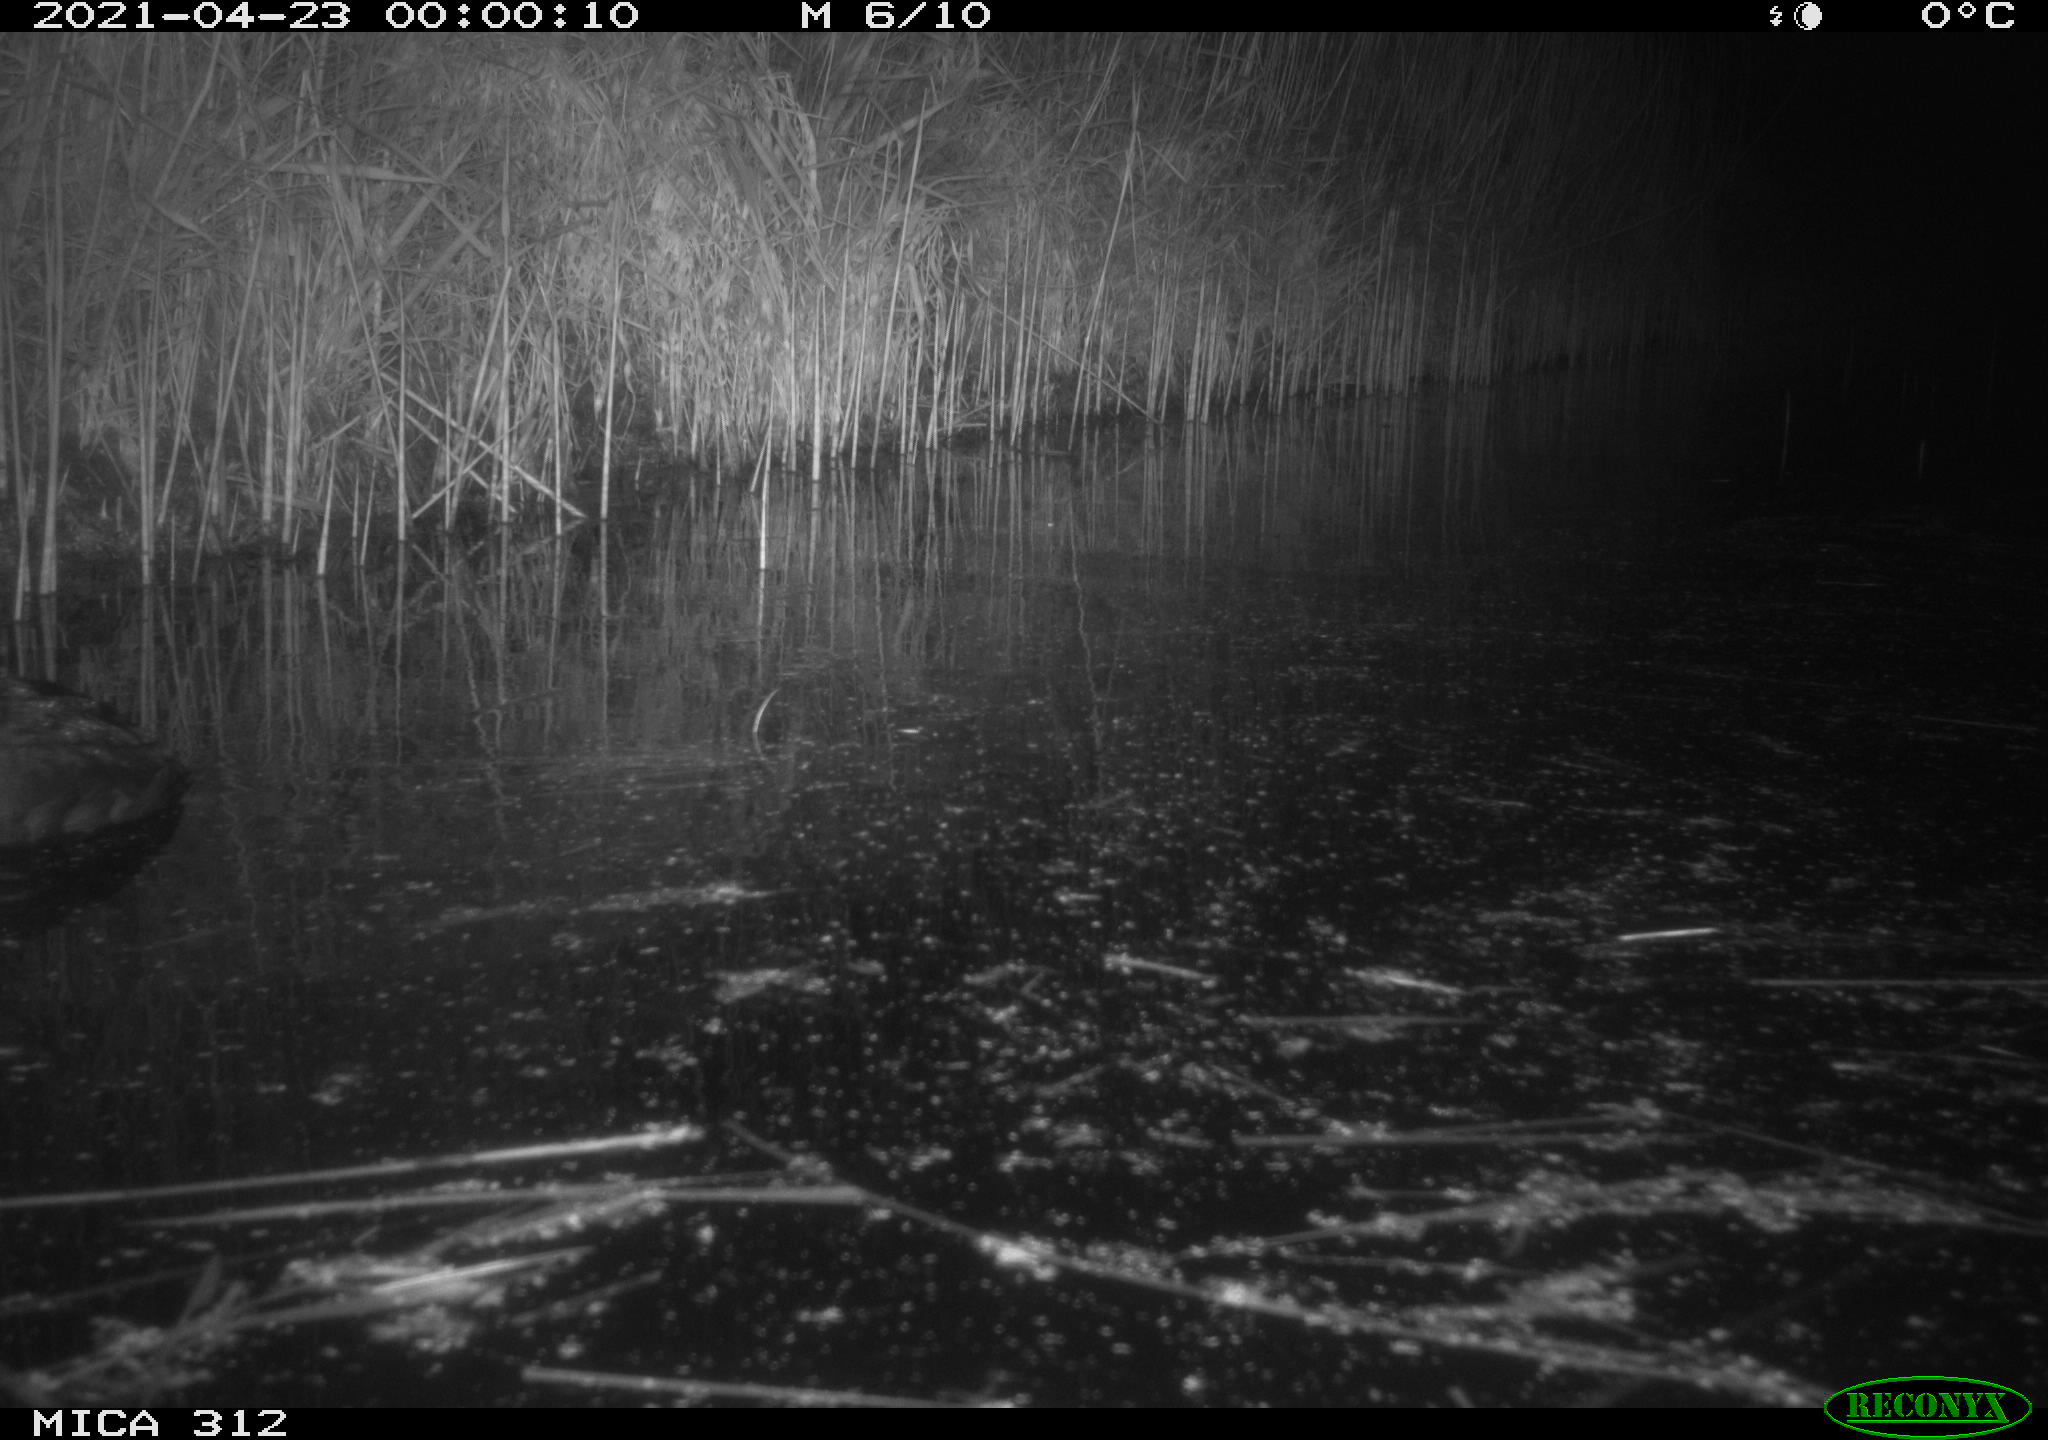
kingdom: Animalia
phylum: Chordata
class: Aves
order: Gruiformes
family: Rallidae
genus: Fulica
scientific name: Fulica atra
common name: Eurasian coot
